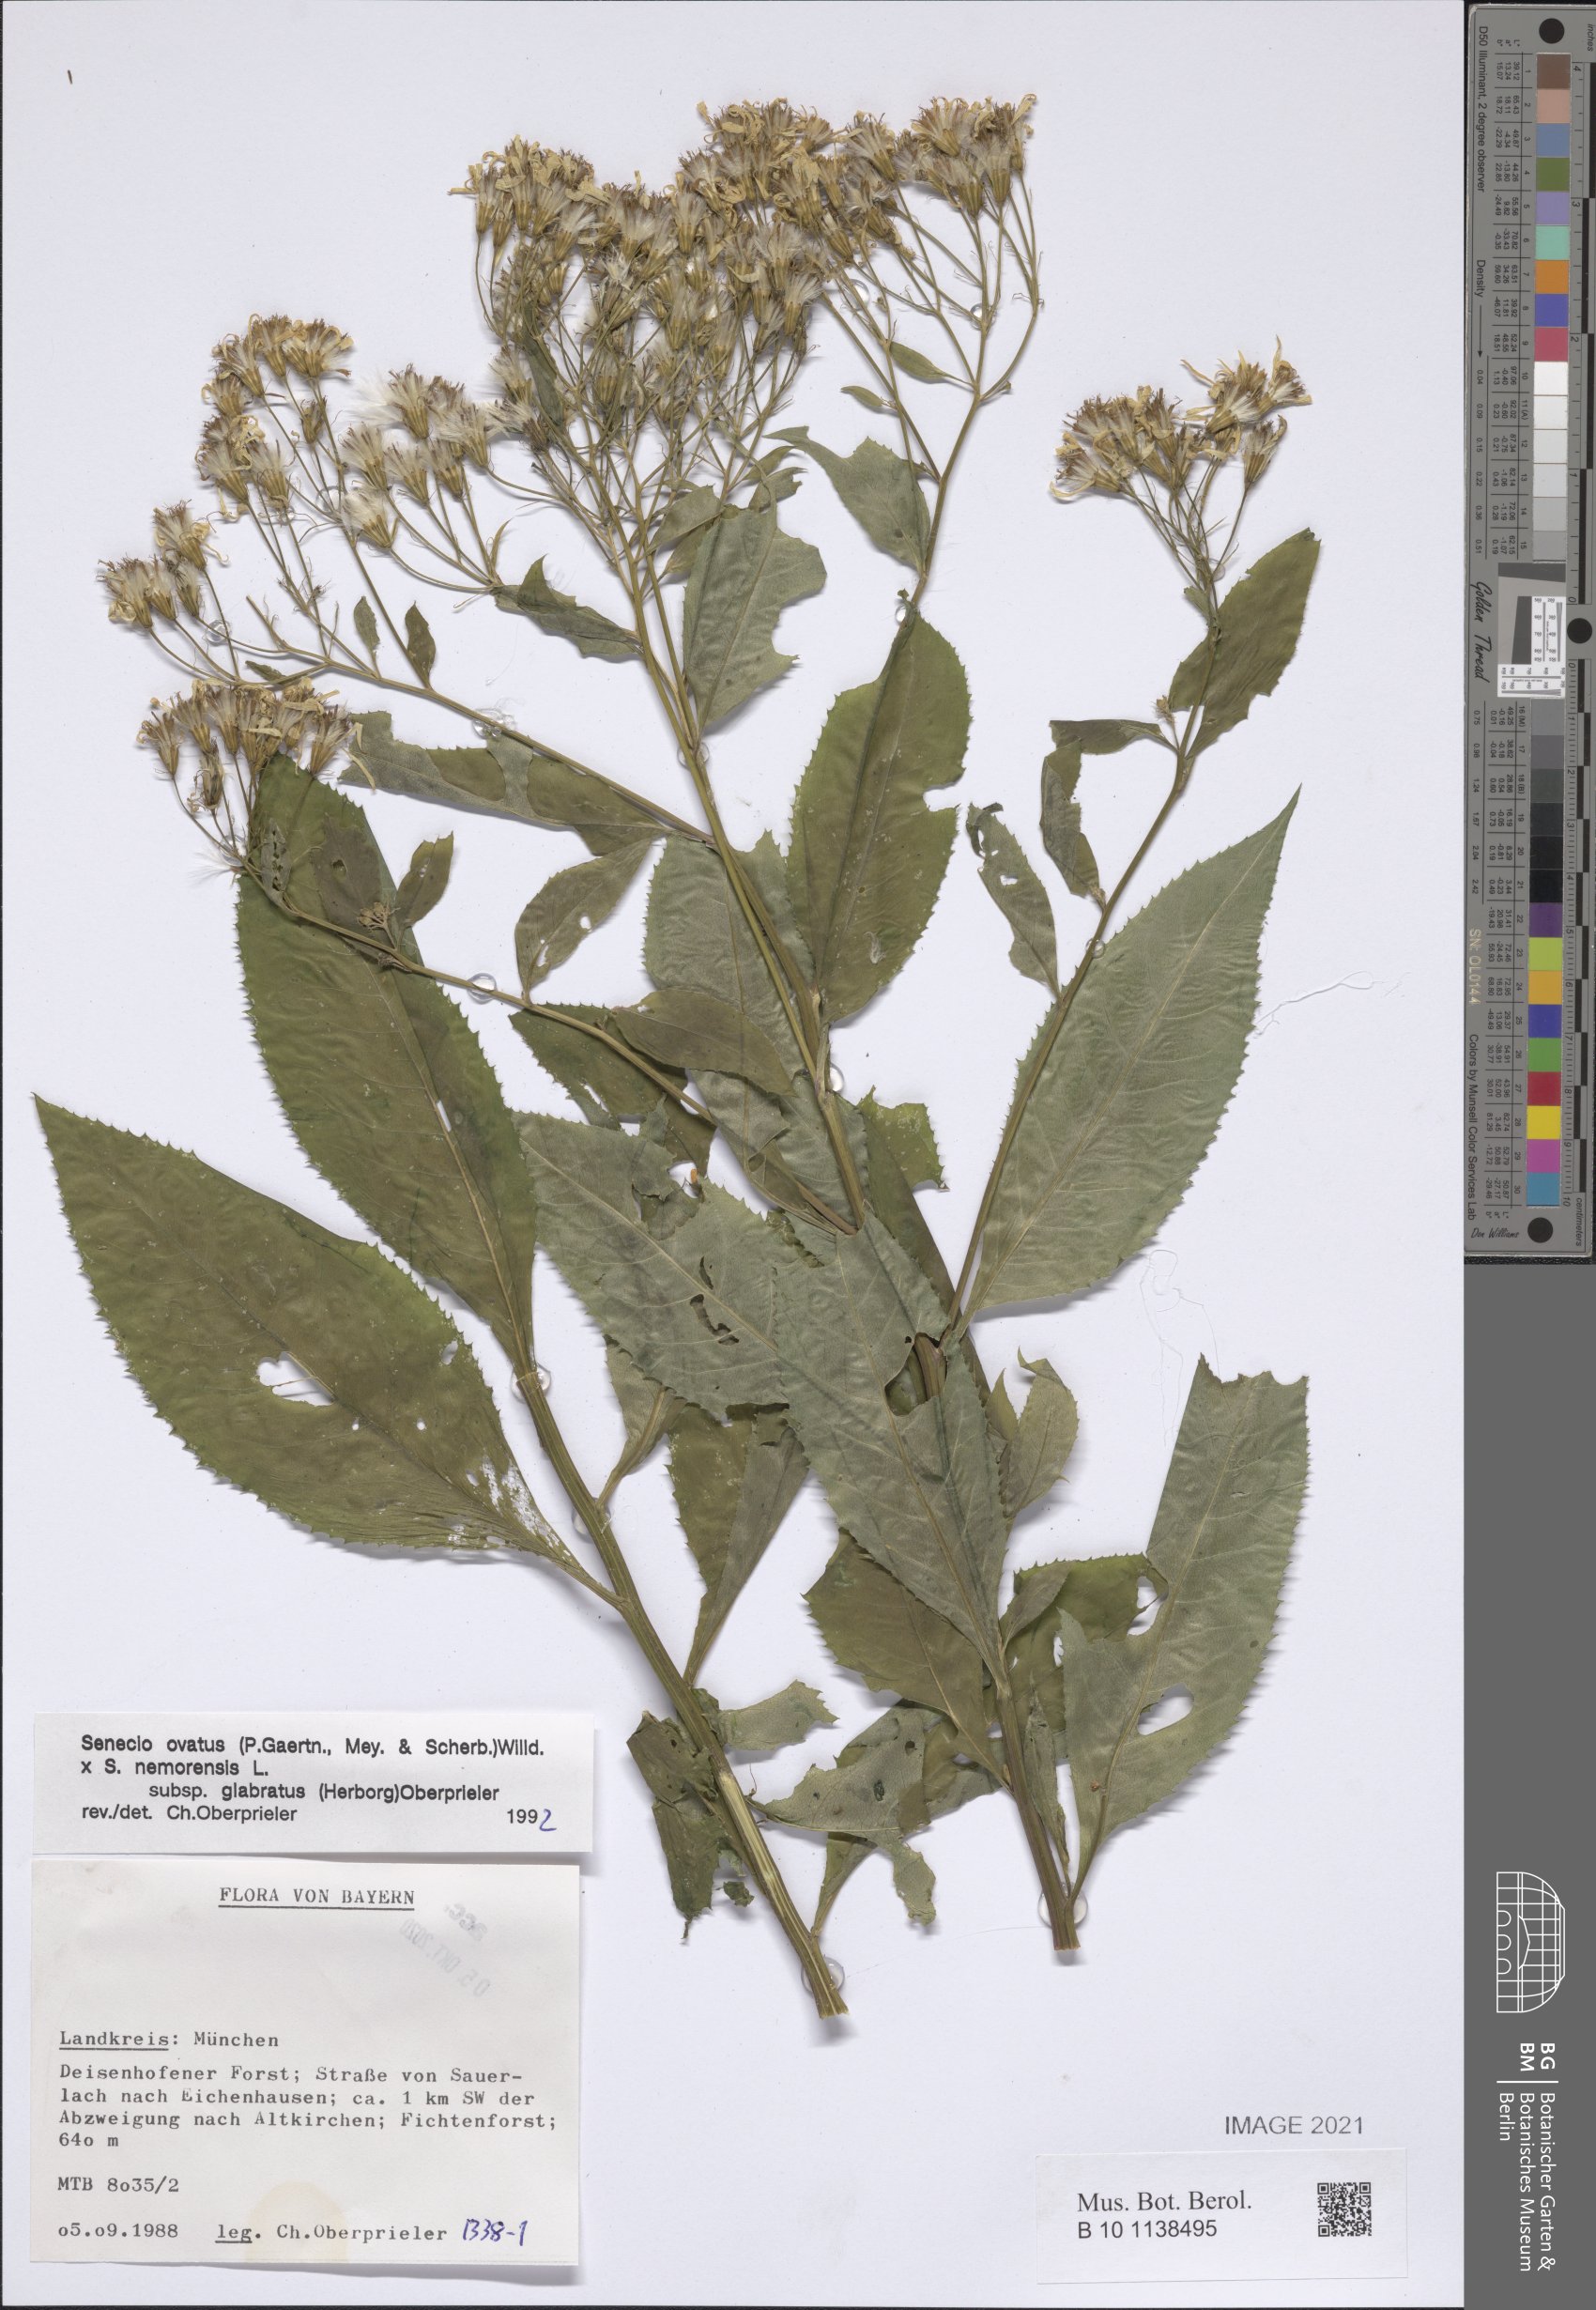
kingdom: Plantae
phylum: Tracheophyta
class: Magnoliopsida
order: Asterales
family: Asteraceae
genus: Senecio
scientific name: Senecio ovatus
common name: Wood ragwort
